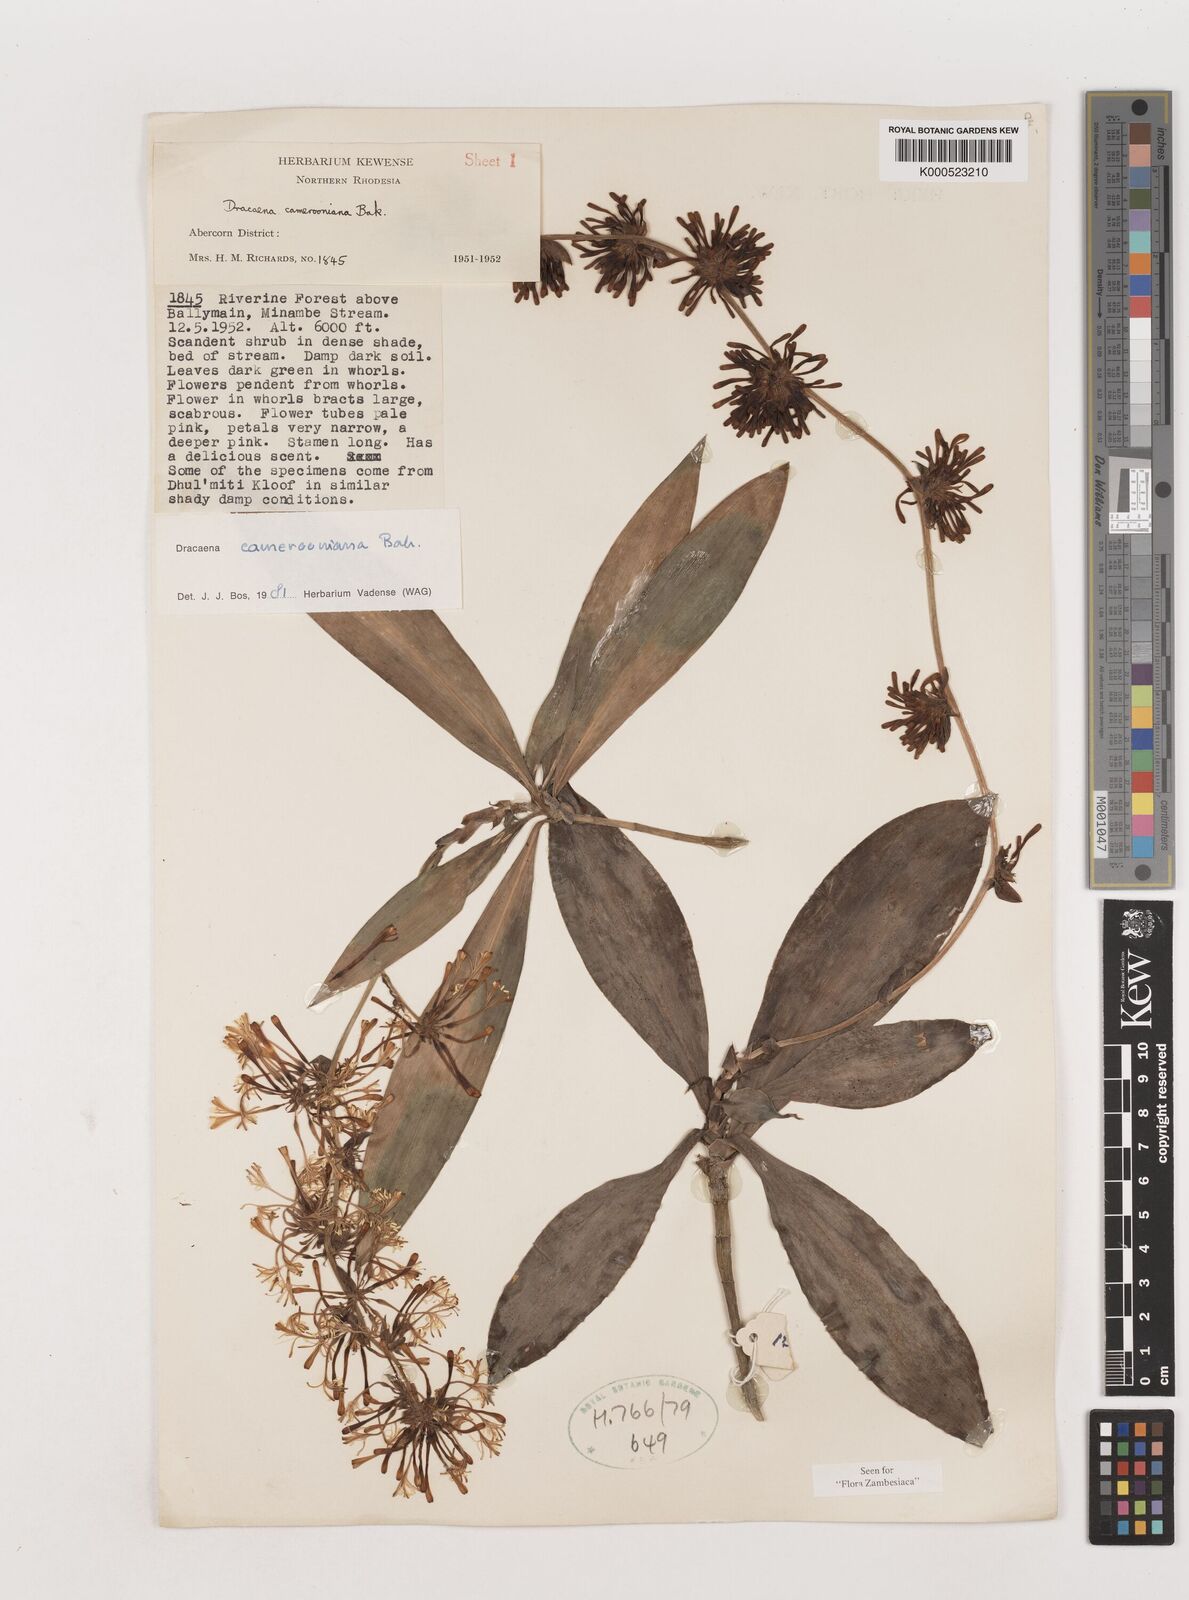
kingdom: Plantae
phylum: Tracheophyta
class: Liliopsida
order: Asparagales
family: Asparagaceae
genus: Dracaena
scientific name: Dracaena camerooniana
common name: Dragon tree
